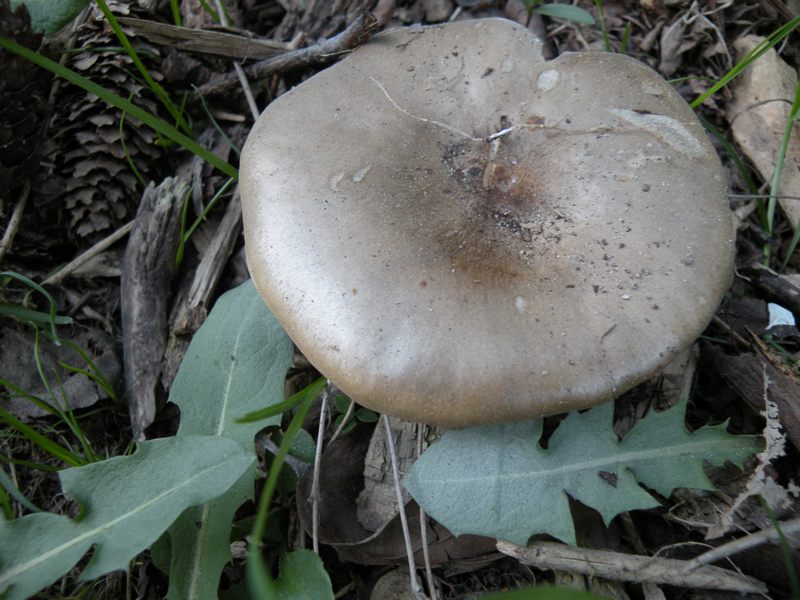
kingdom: Fungi
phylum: Basidiomycota
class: Agaricomycetes
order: Agaricales
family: Tricholomataceae
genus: Melanoleuca
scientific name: Melanoleuca
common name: munkehat
